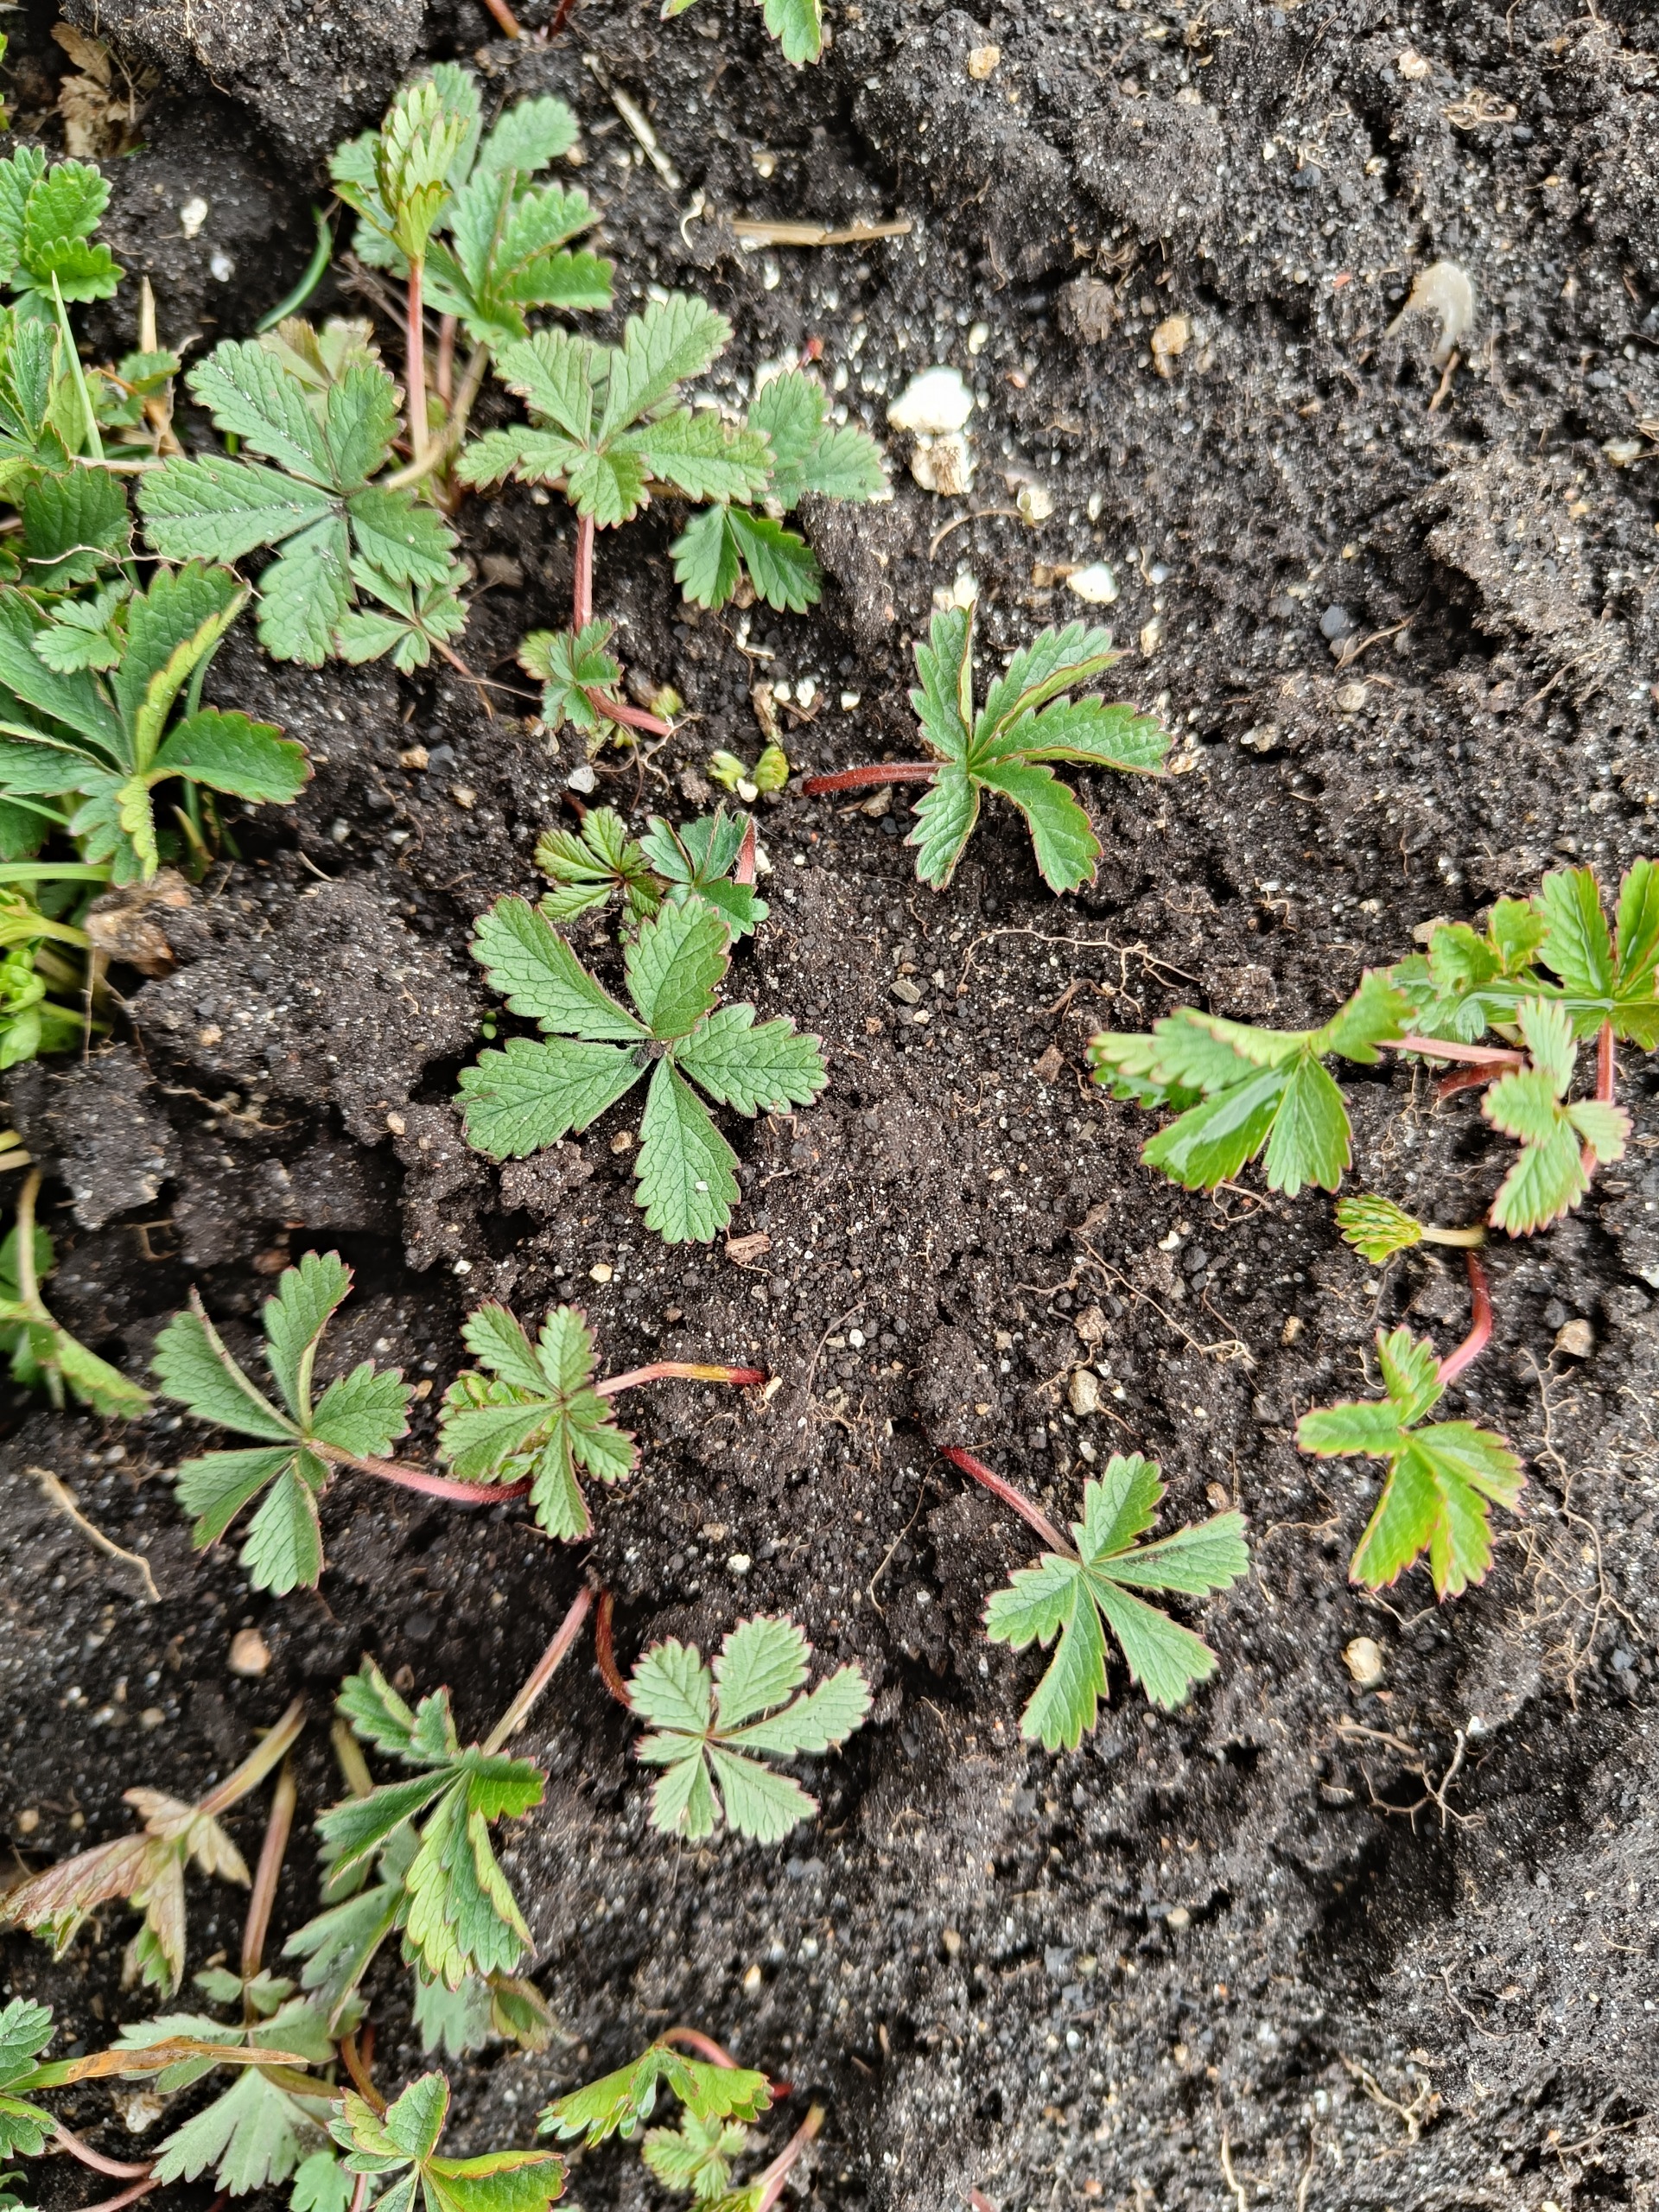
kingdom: Plantae
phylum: Tracheophyta
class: Magnoliopsida
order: Rosales
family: Rosaceae
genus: Potentilla
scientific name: Potentilla reptans
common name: Krybende potentil
